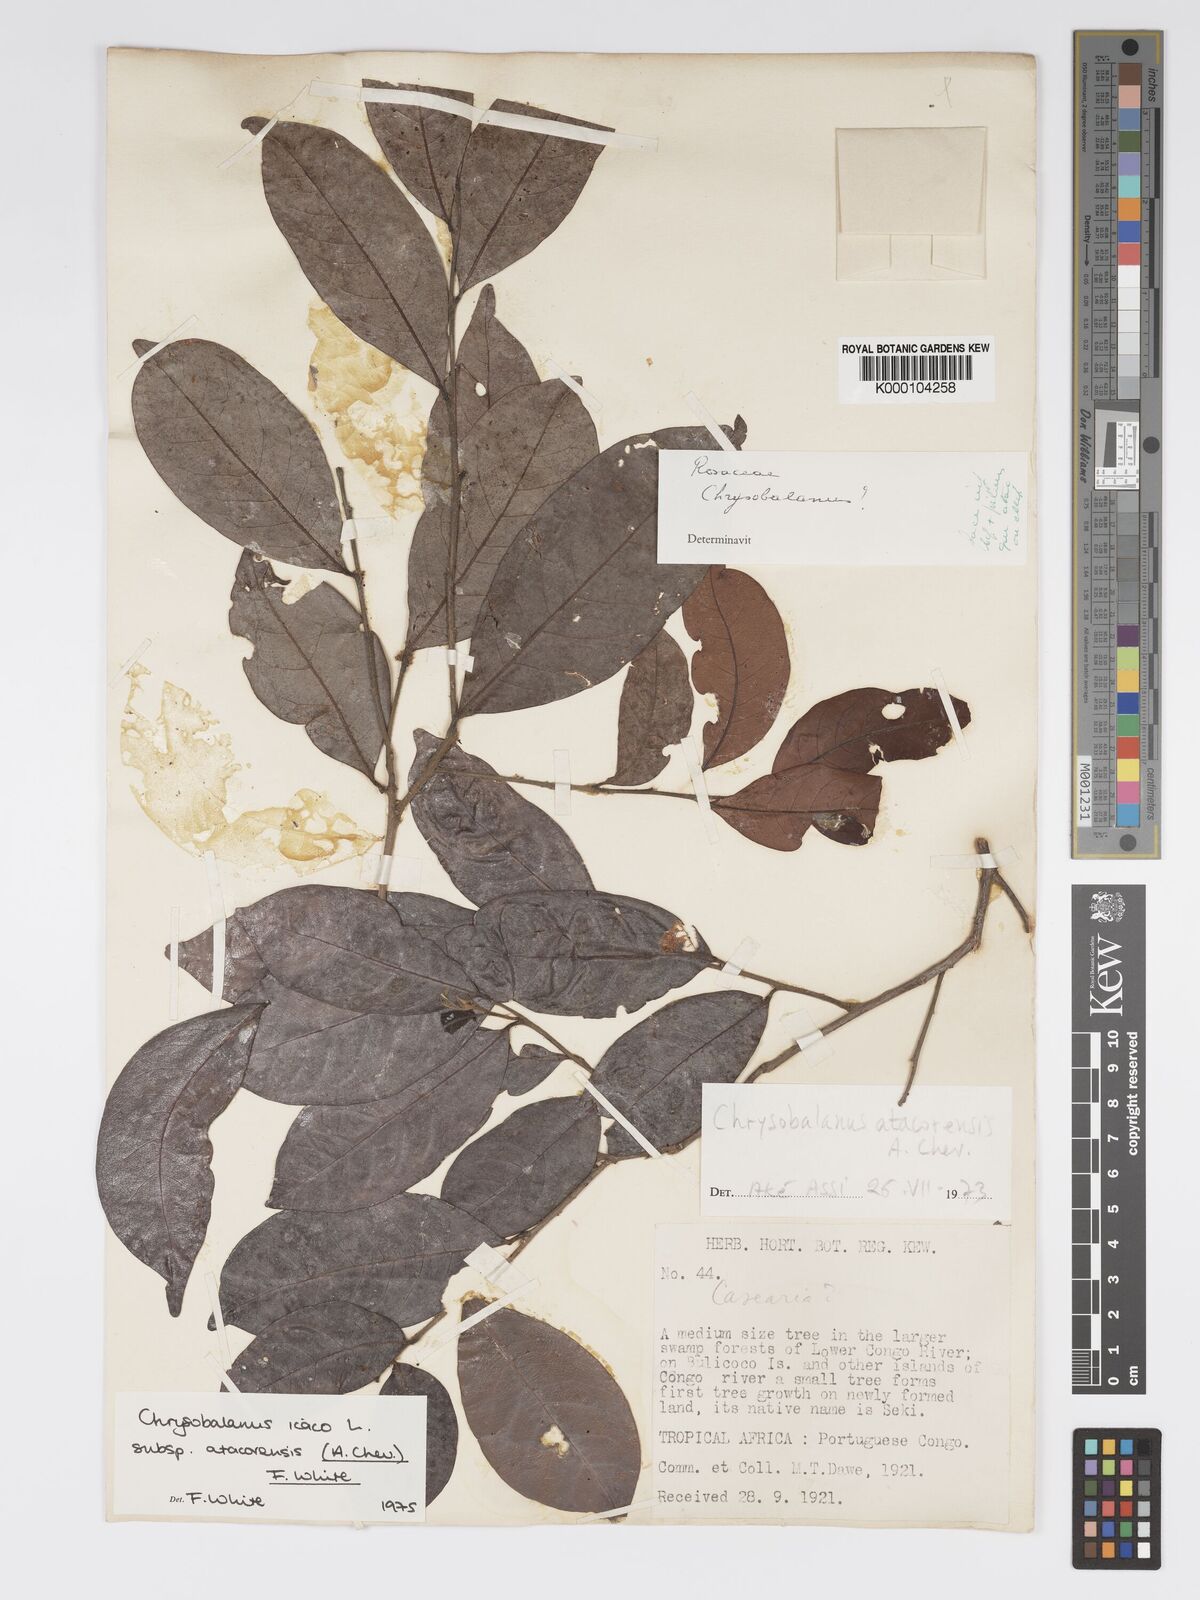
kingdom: Plantae
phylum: Tracheophyta
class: Magnoliopsida
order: Malpighiales
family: Chrysobalanaceae
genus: Chrysobalanus
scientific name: Chrysobalanus icaco
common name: Coco plum
